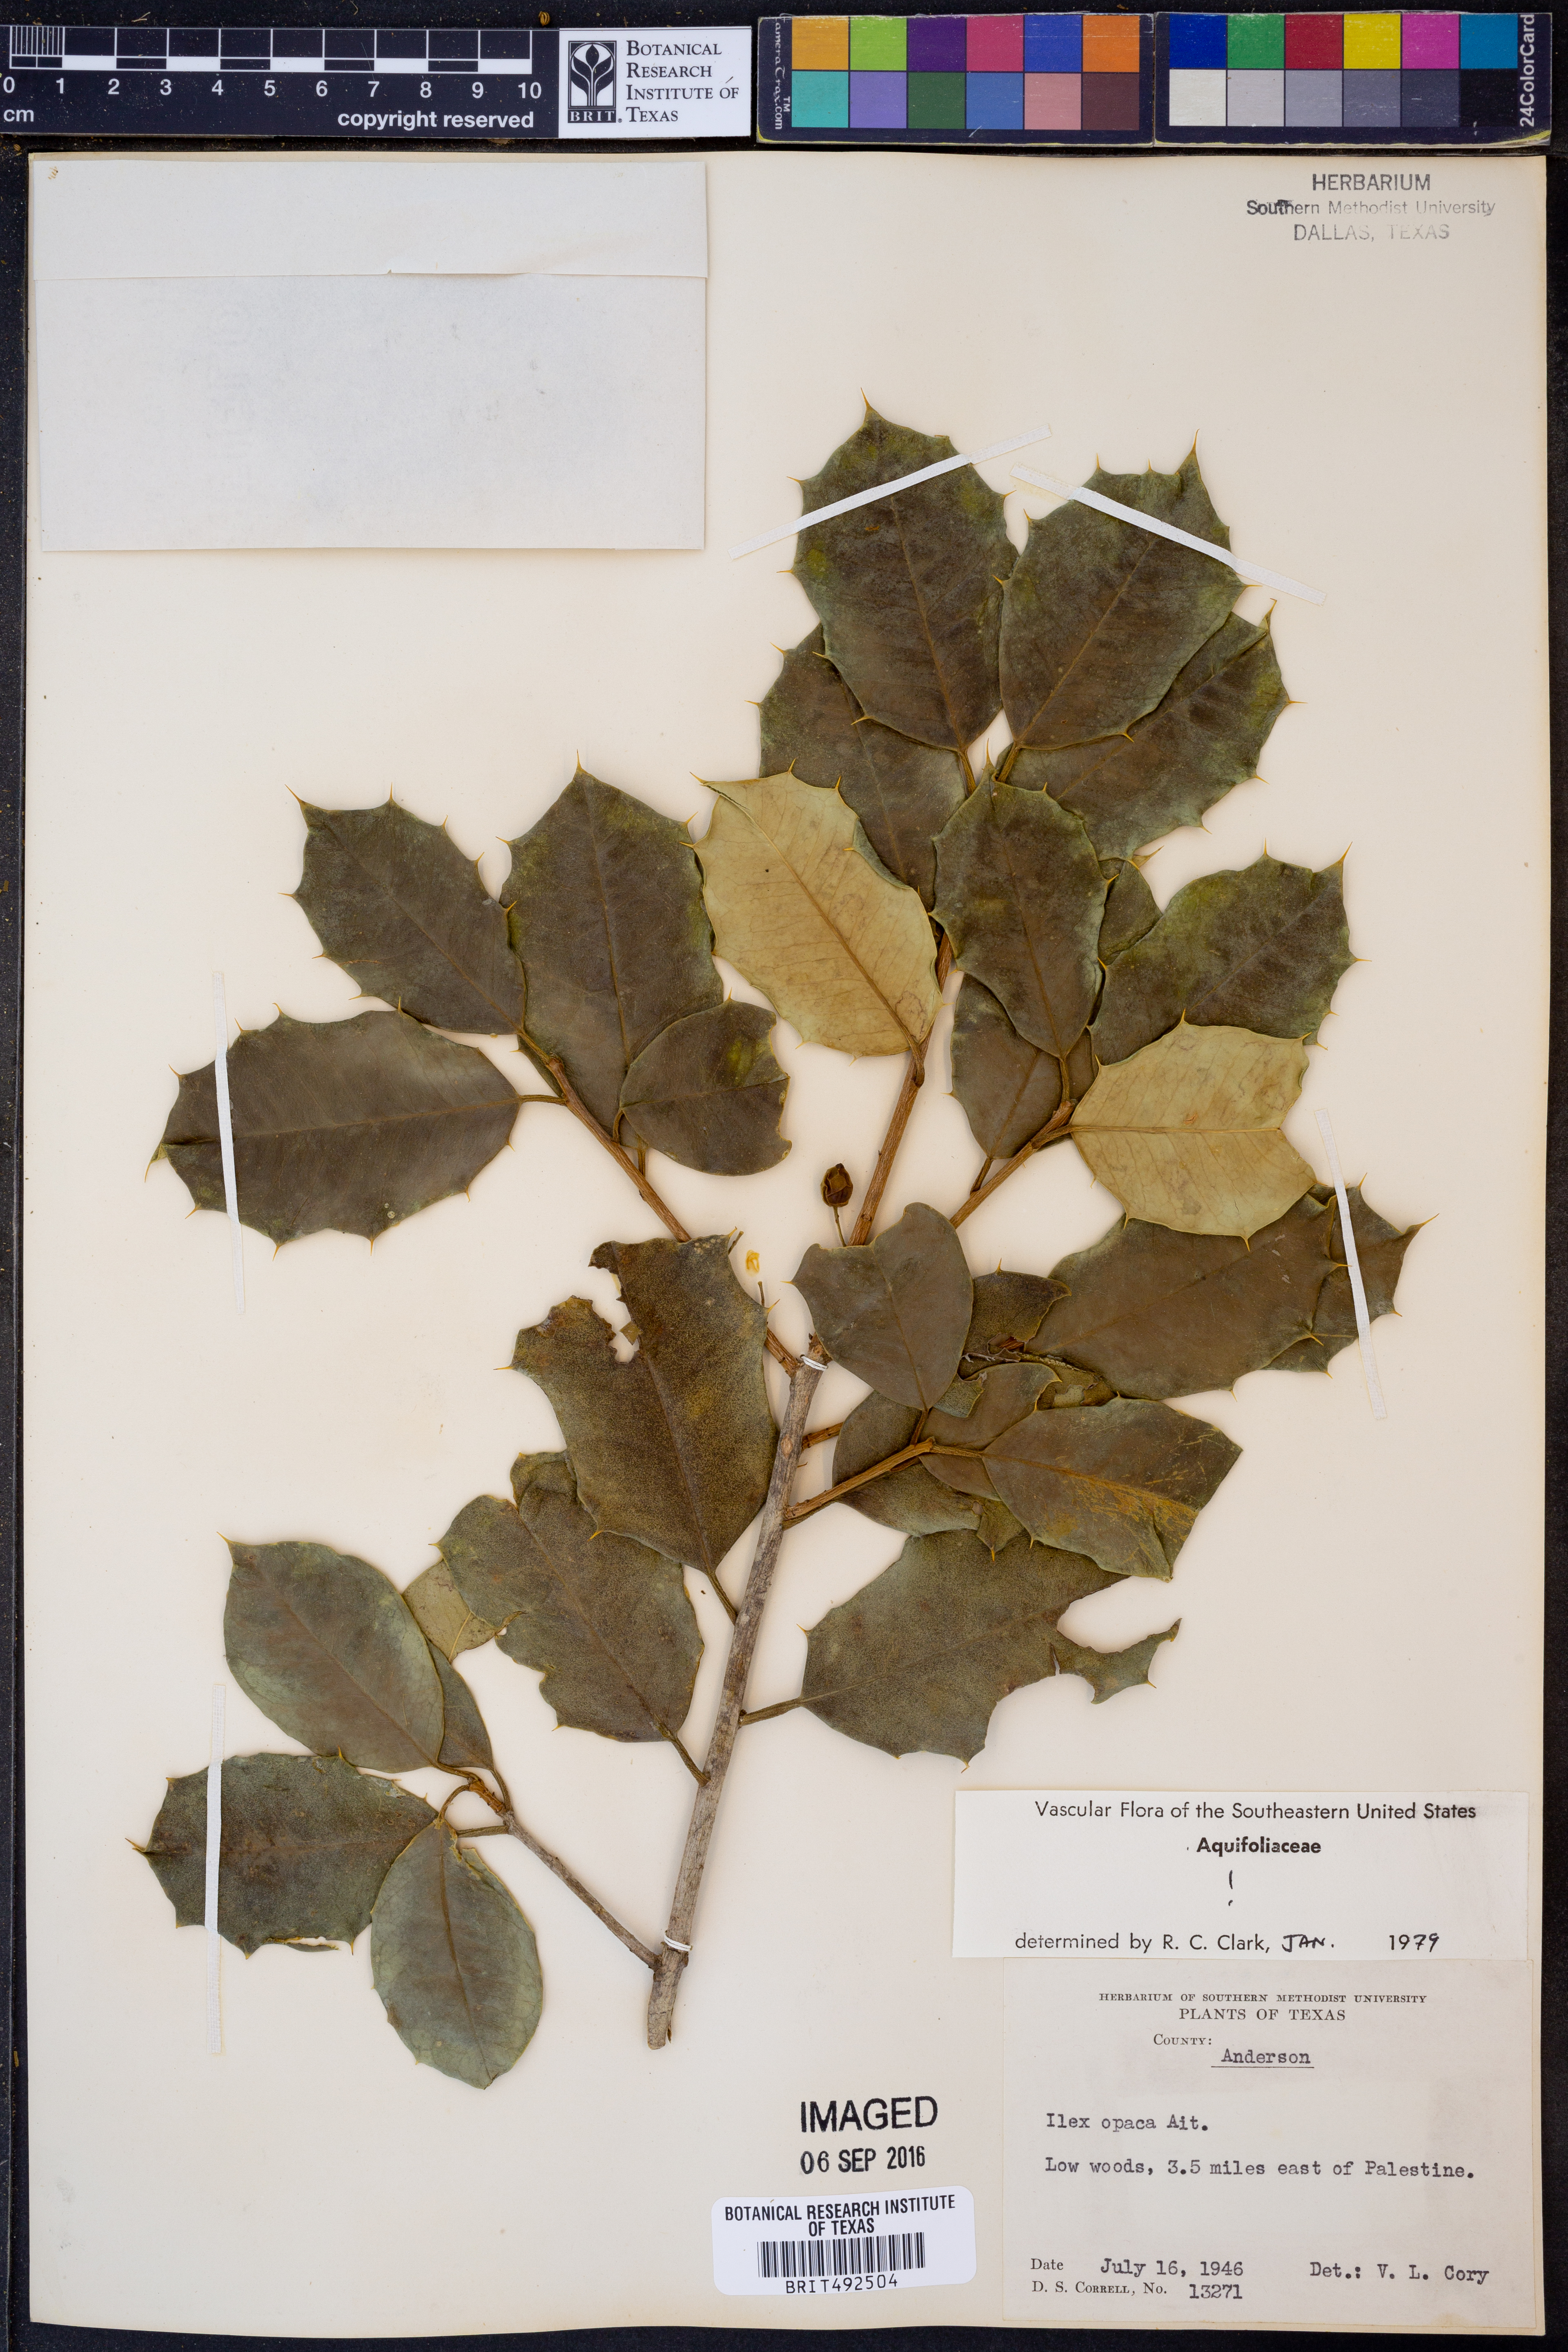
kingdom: Plantae
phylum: Tracheophyta
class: Magnoliopsida
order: Aquifoliales
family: Aquifoliaceae
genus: Ilex
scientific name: Ilex opaca
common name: American holly
